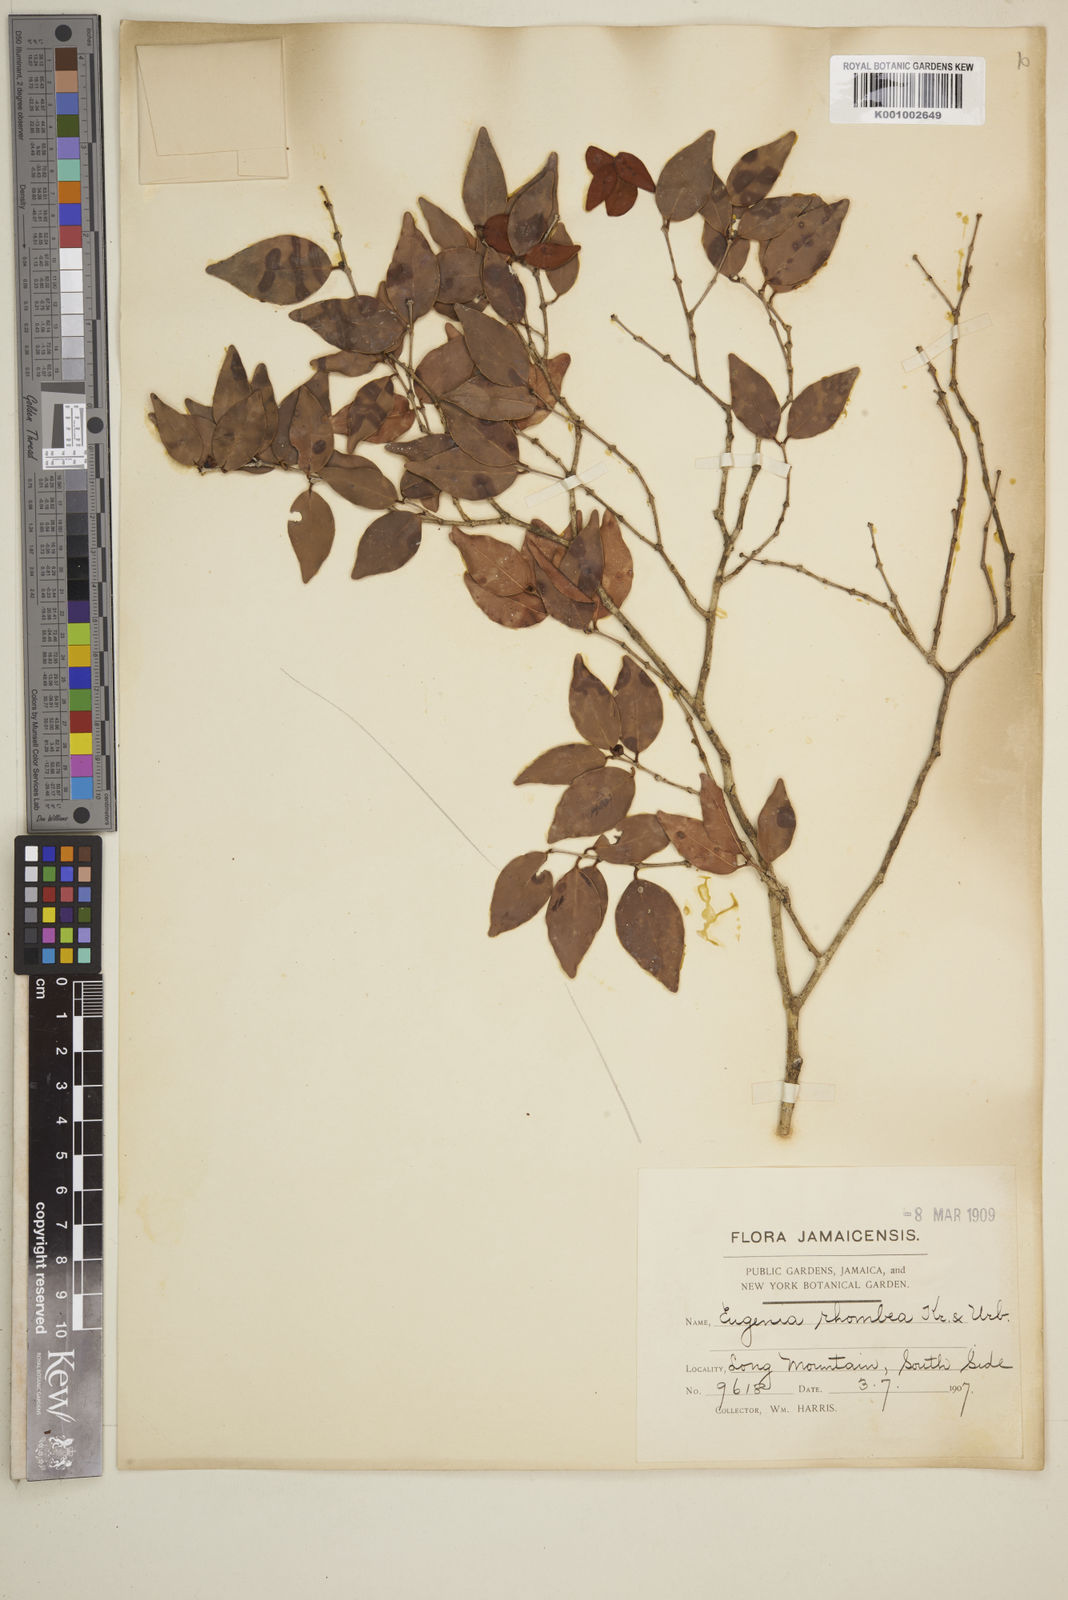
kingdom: Plantae
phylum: Tracheophyta
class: Magnoliopsida
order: Myrtales
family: Myrtaceae
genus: Eugenia
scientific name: Eugenia rhombea
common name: Pigeon berry
